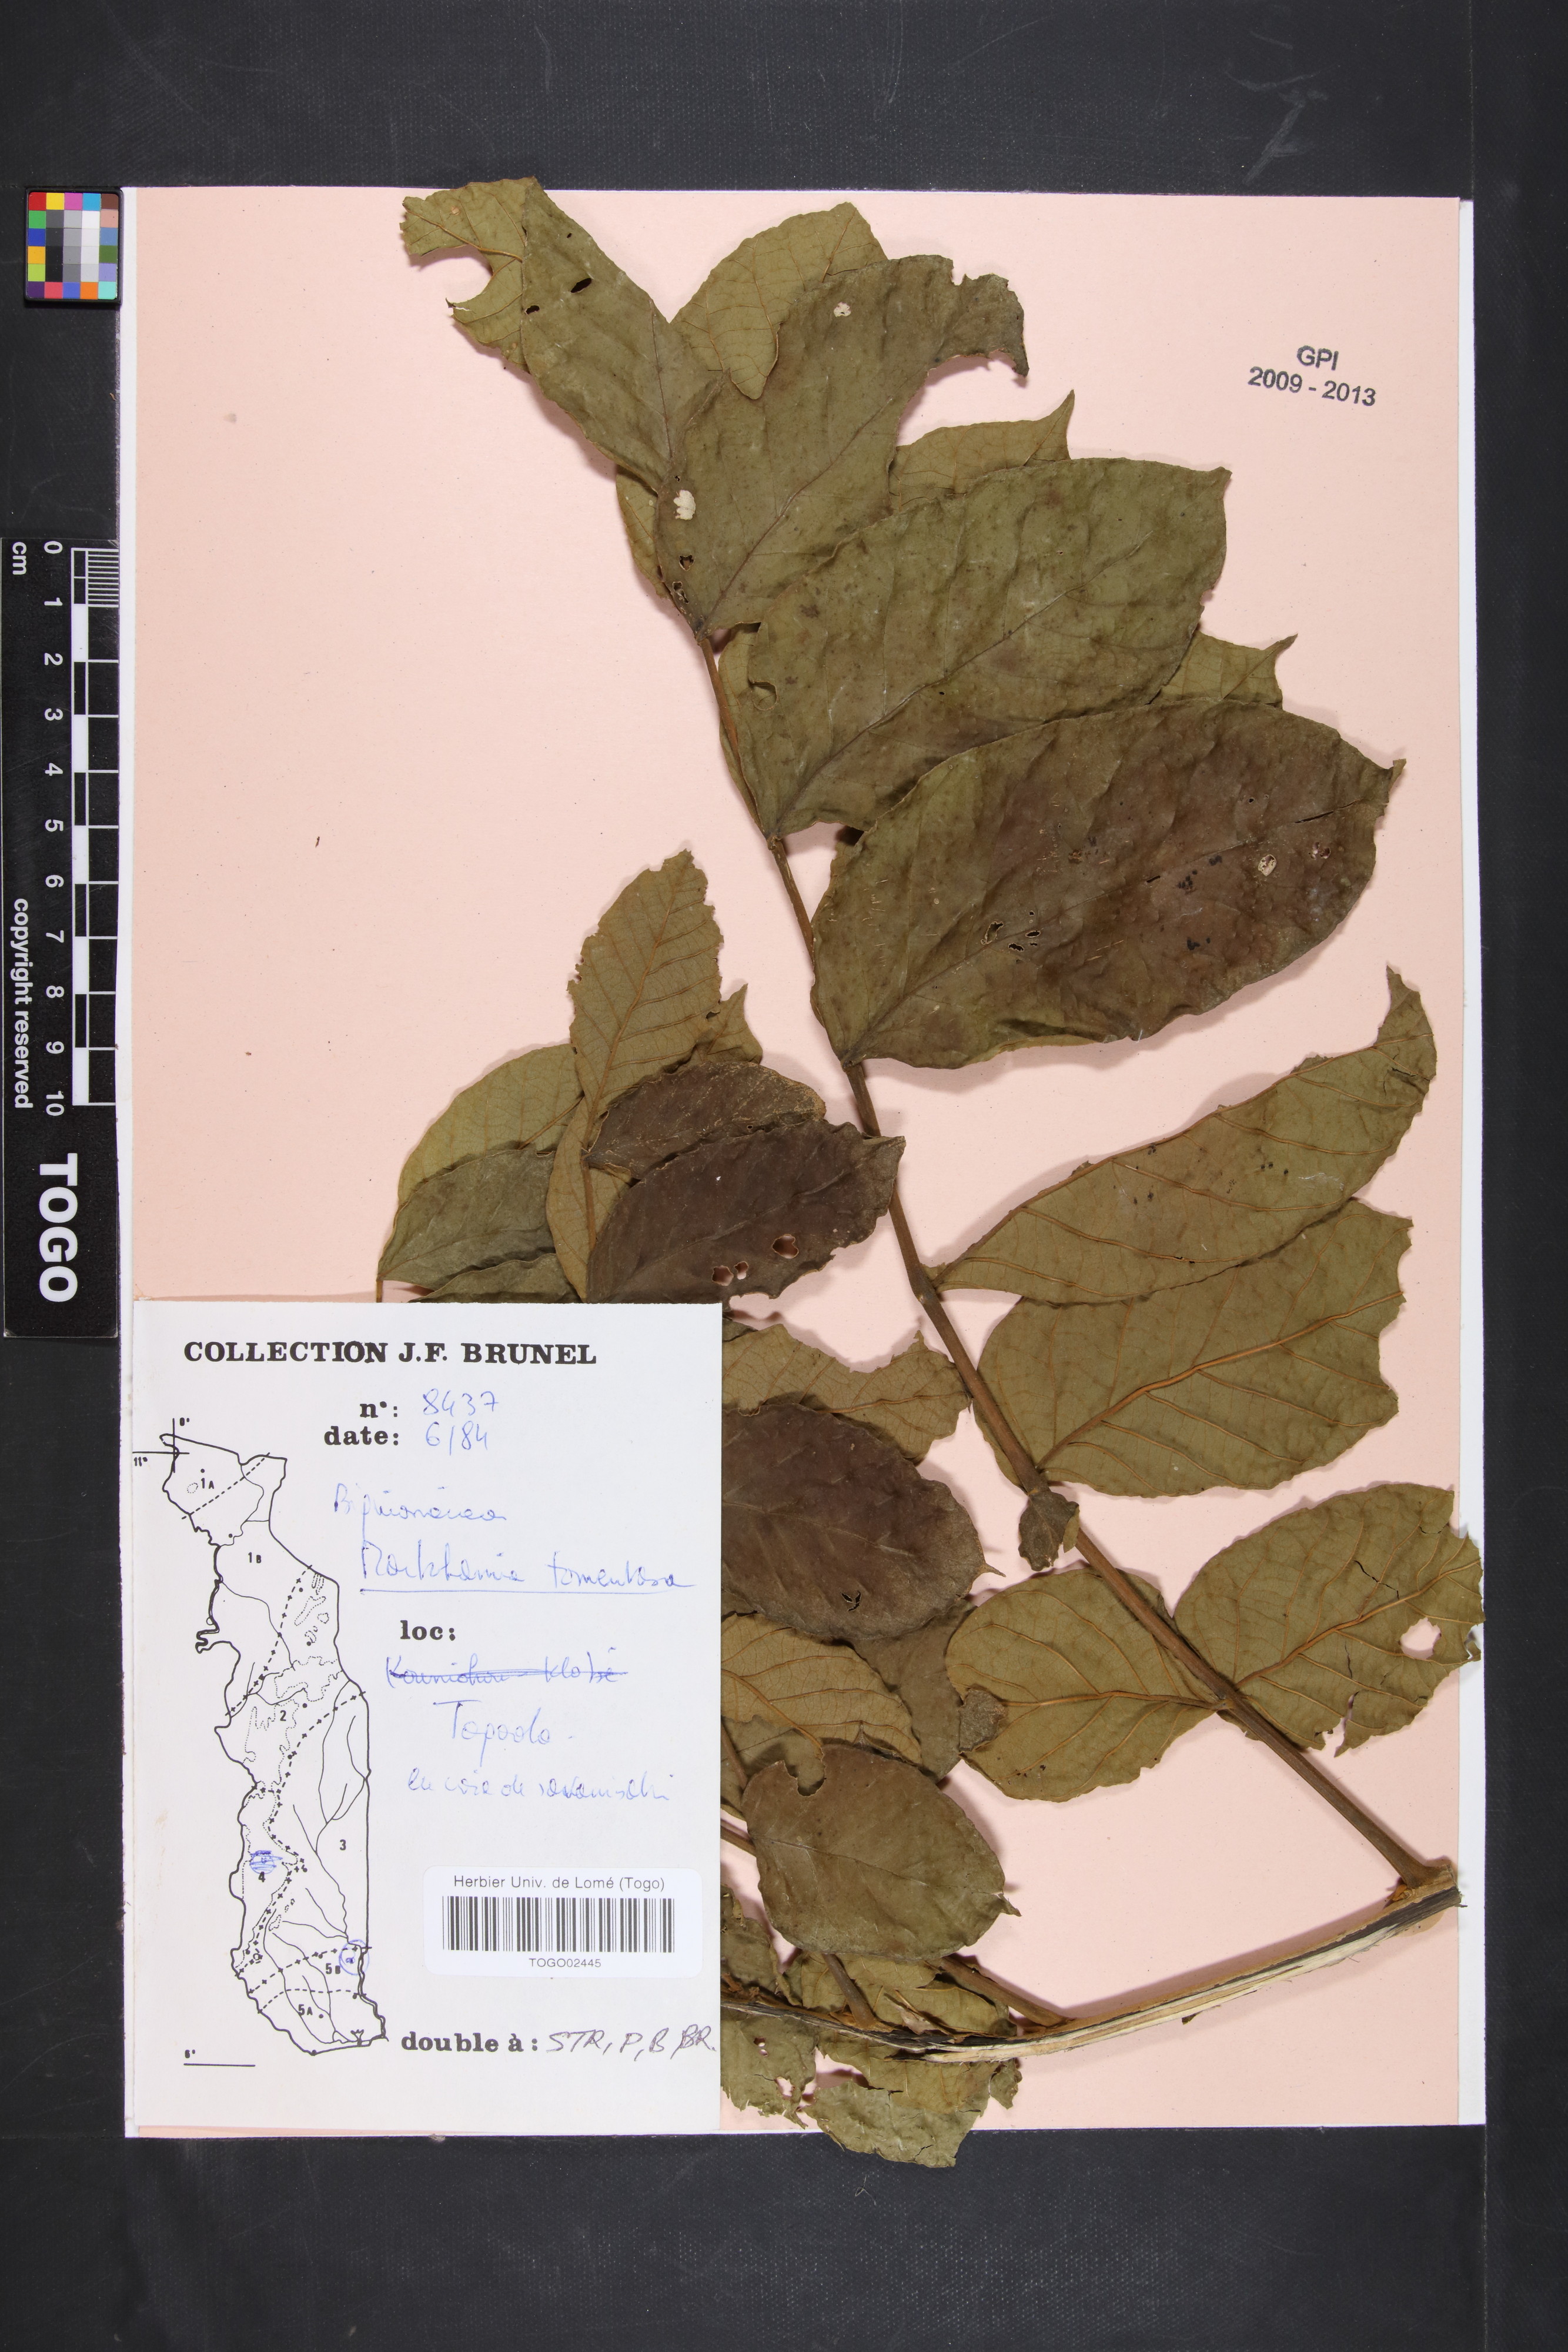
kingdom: Plantae
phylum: Tracheophyta
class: Magnoliopsida
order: Lamiales
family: Bignoniaceae
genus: Markhamia
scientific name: Markhamia tomentosa
